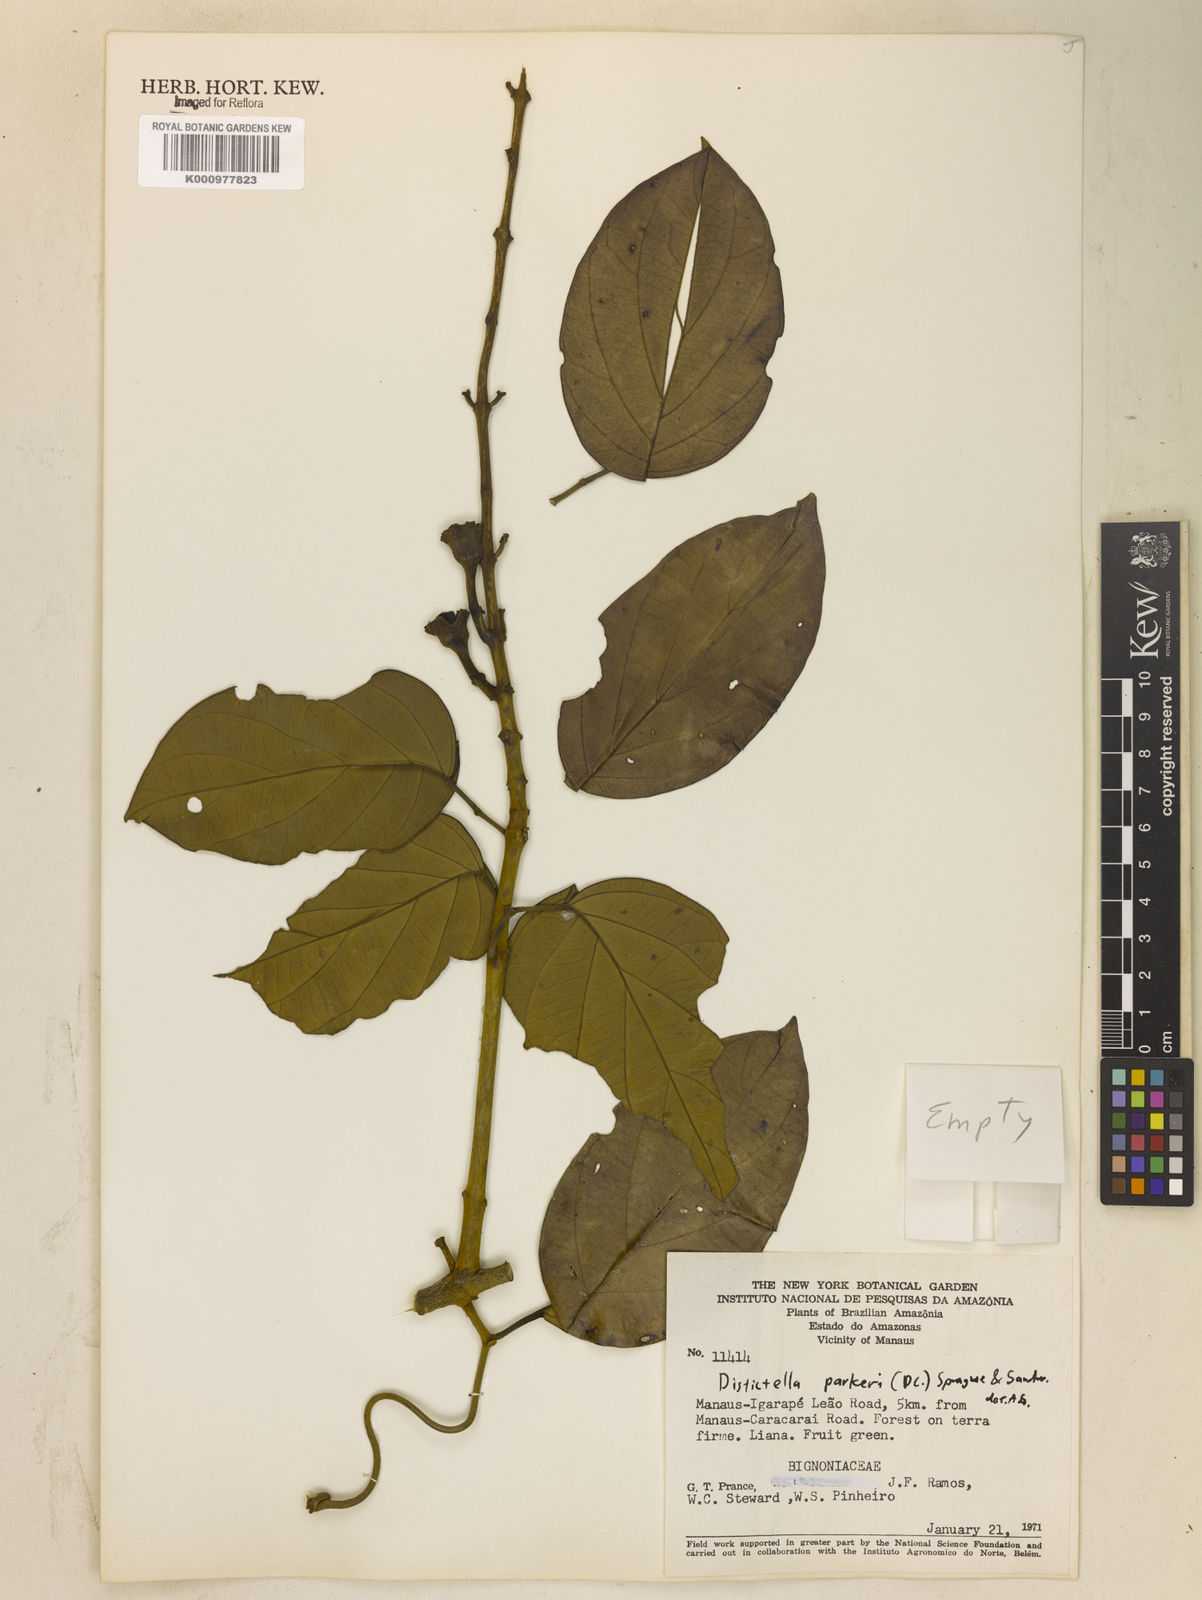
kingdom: Plantae
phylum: Tracheophyta
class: Magnoliopsida
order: Lamiales
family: Bignoniaceae
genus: Amphilophium
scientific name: Amphilophium parkeri
